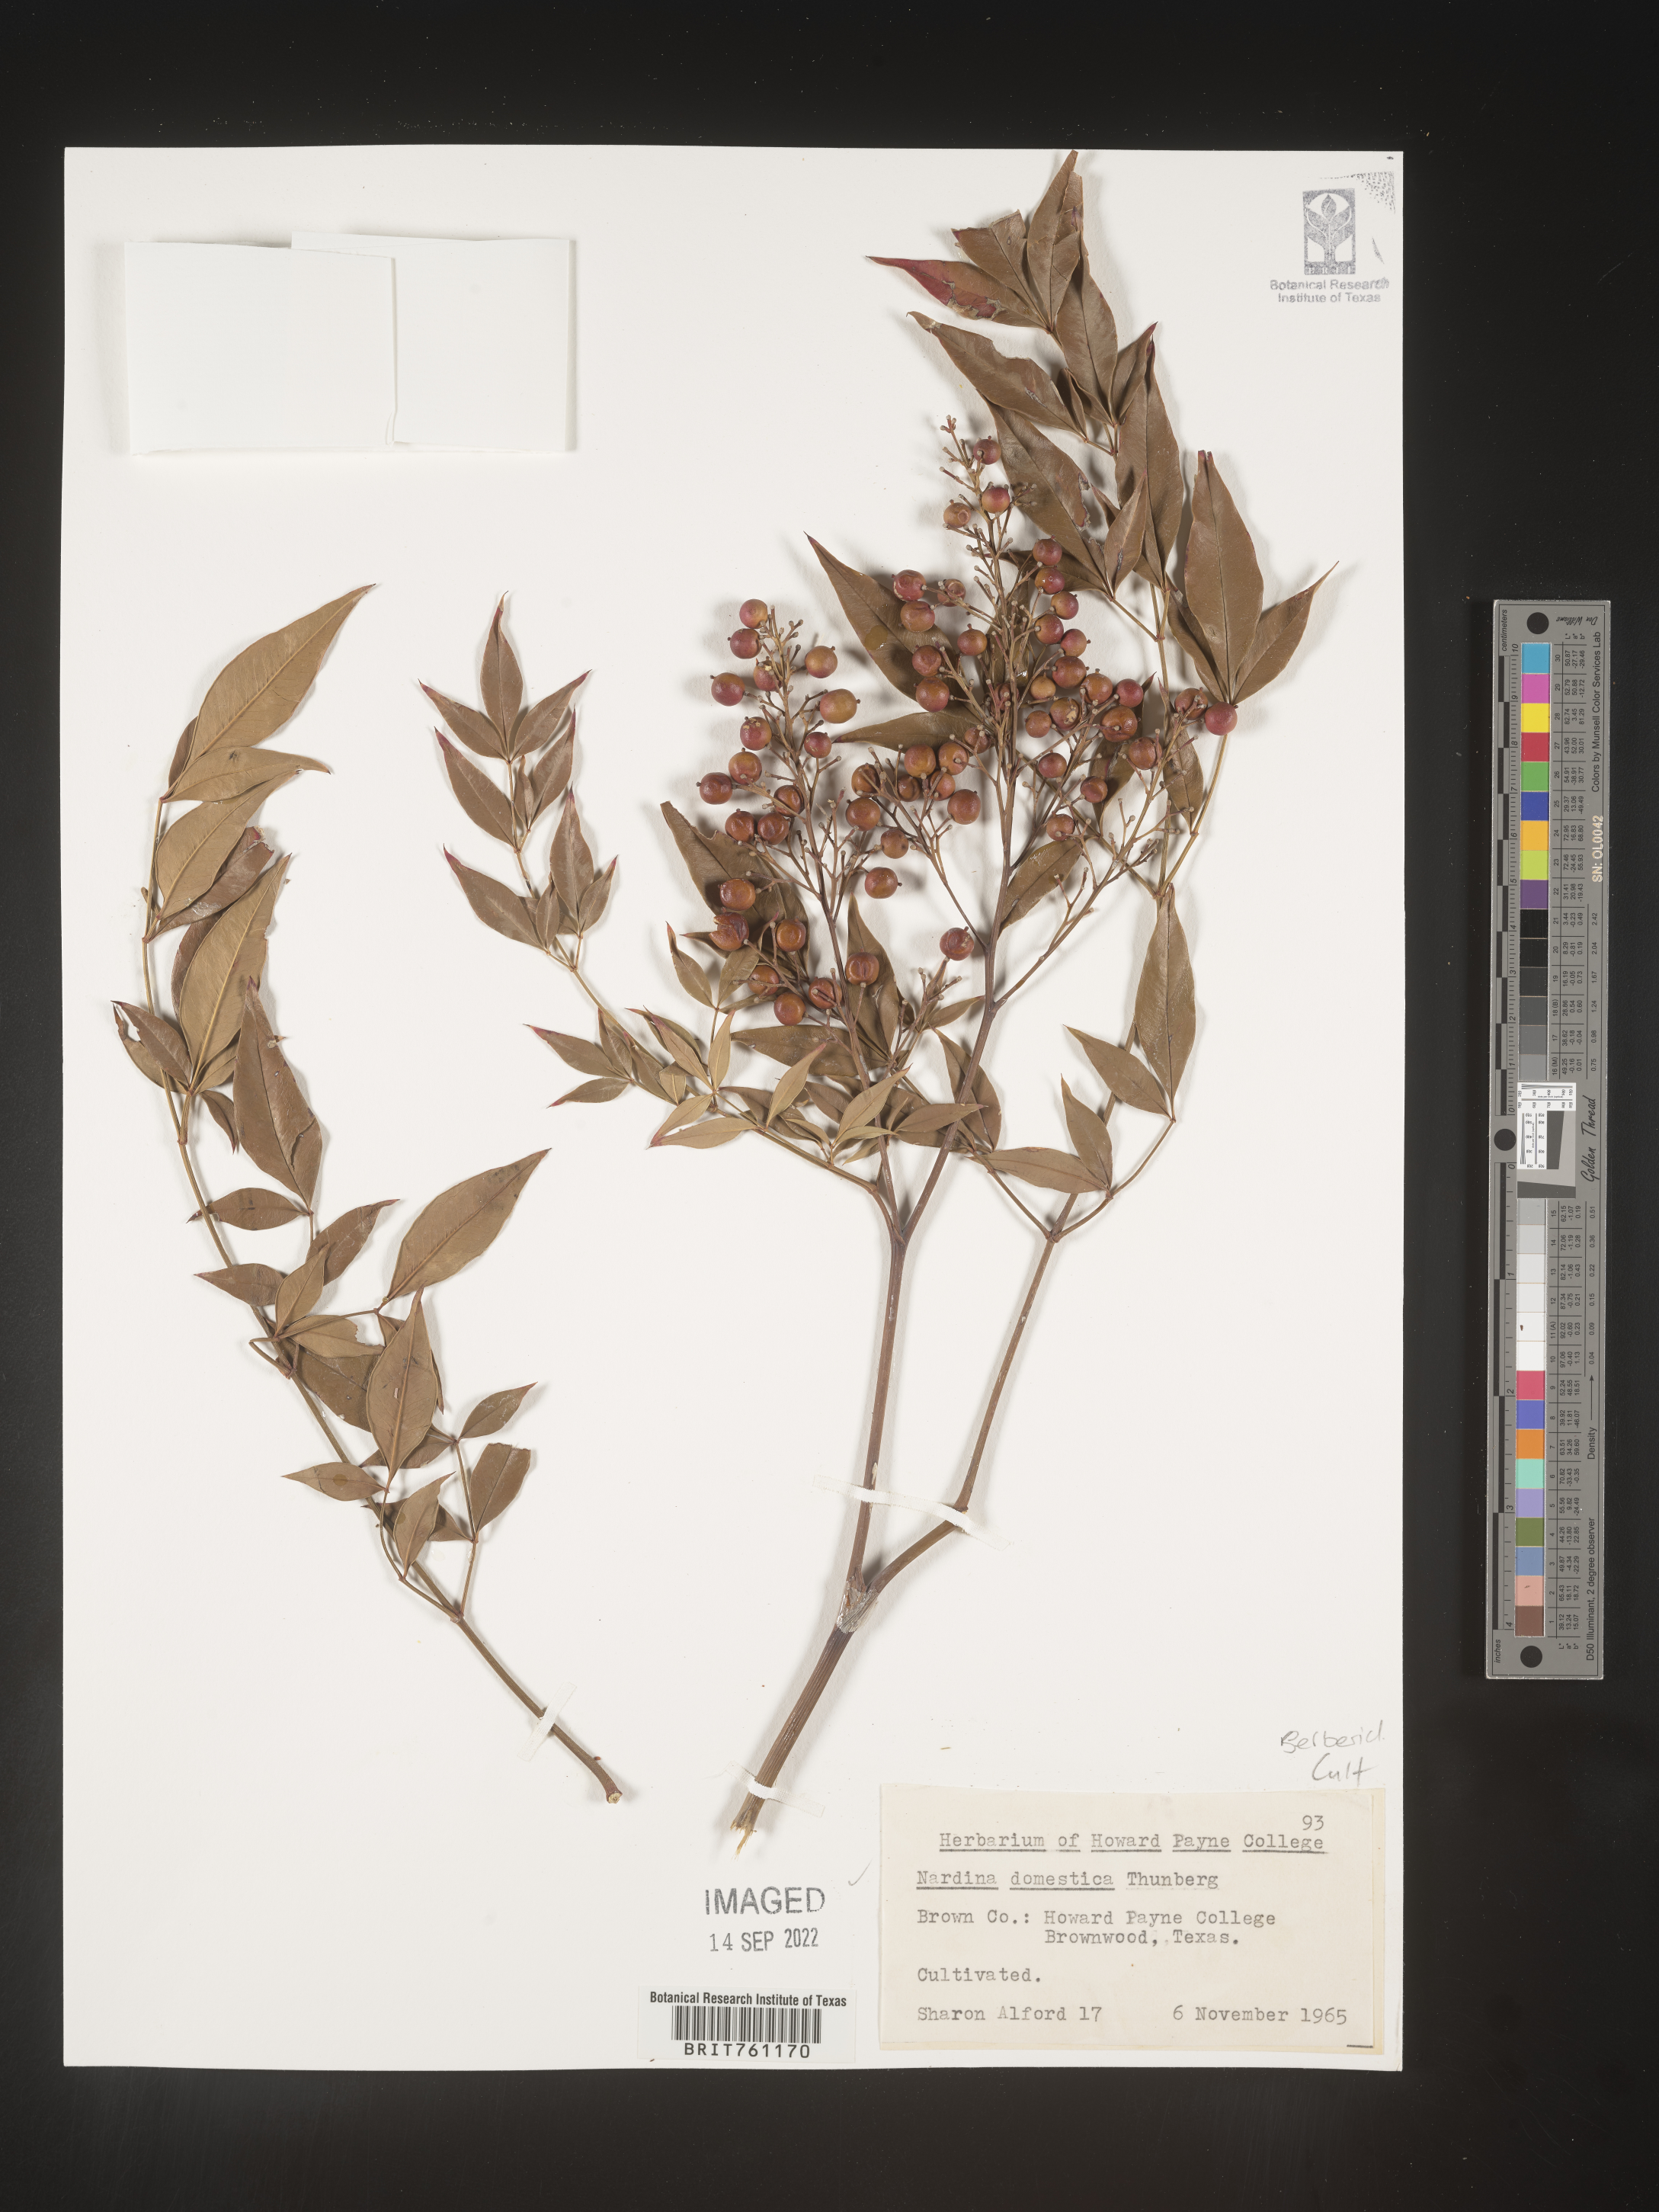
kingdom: Plantae
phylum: Tracheophyta
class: Magnoliopsida
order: Ranunculales
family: Berberidaceae
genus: Nandina
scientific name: Nandina
